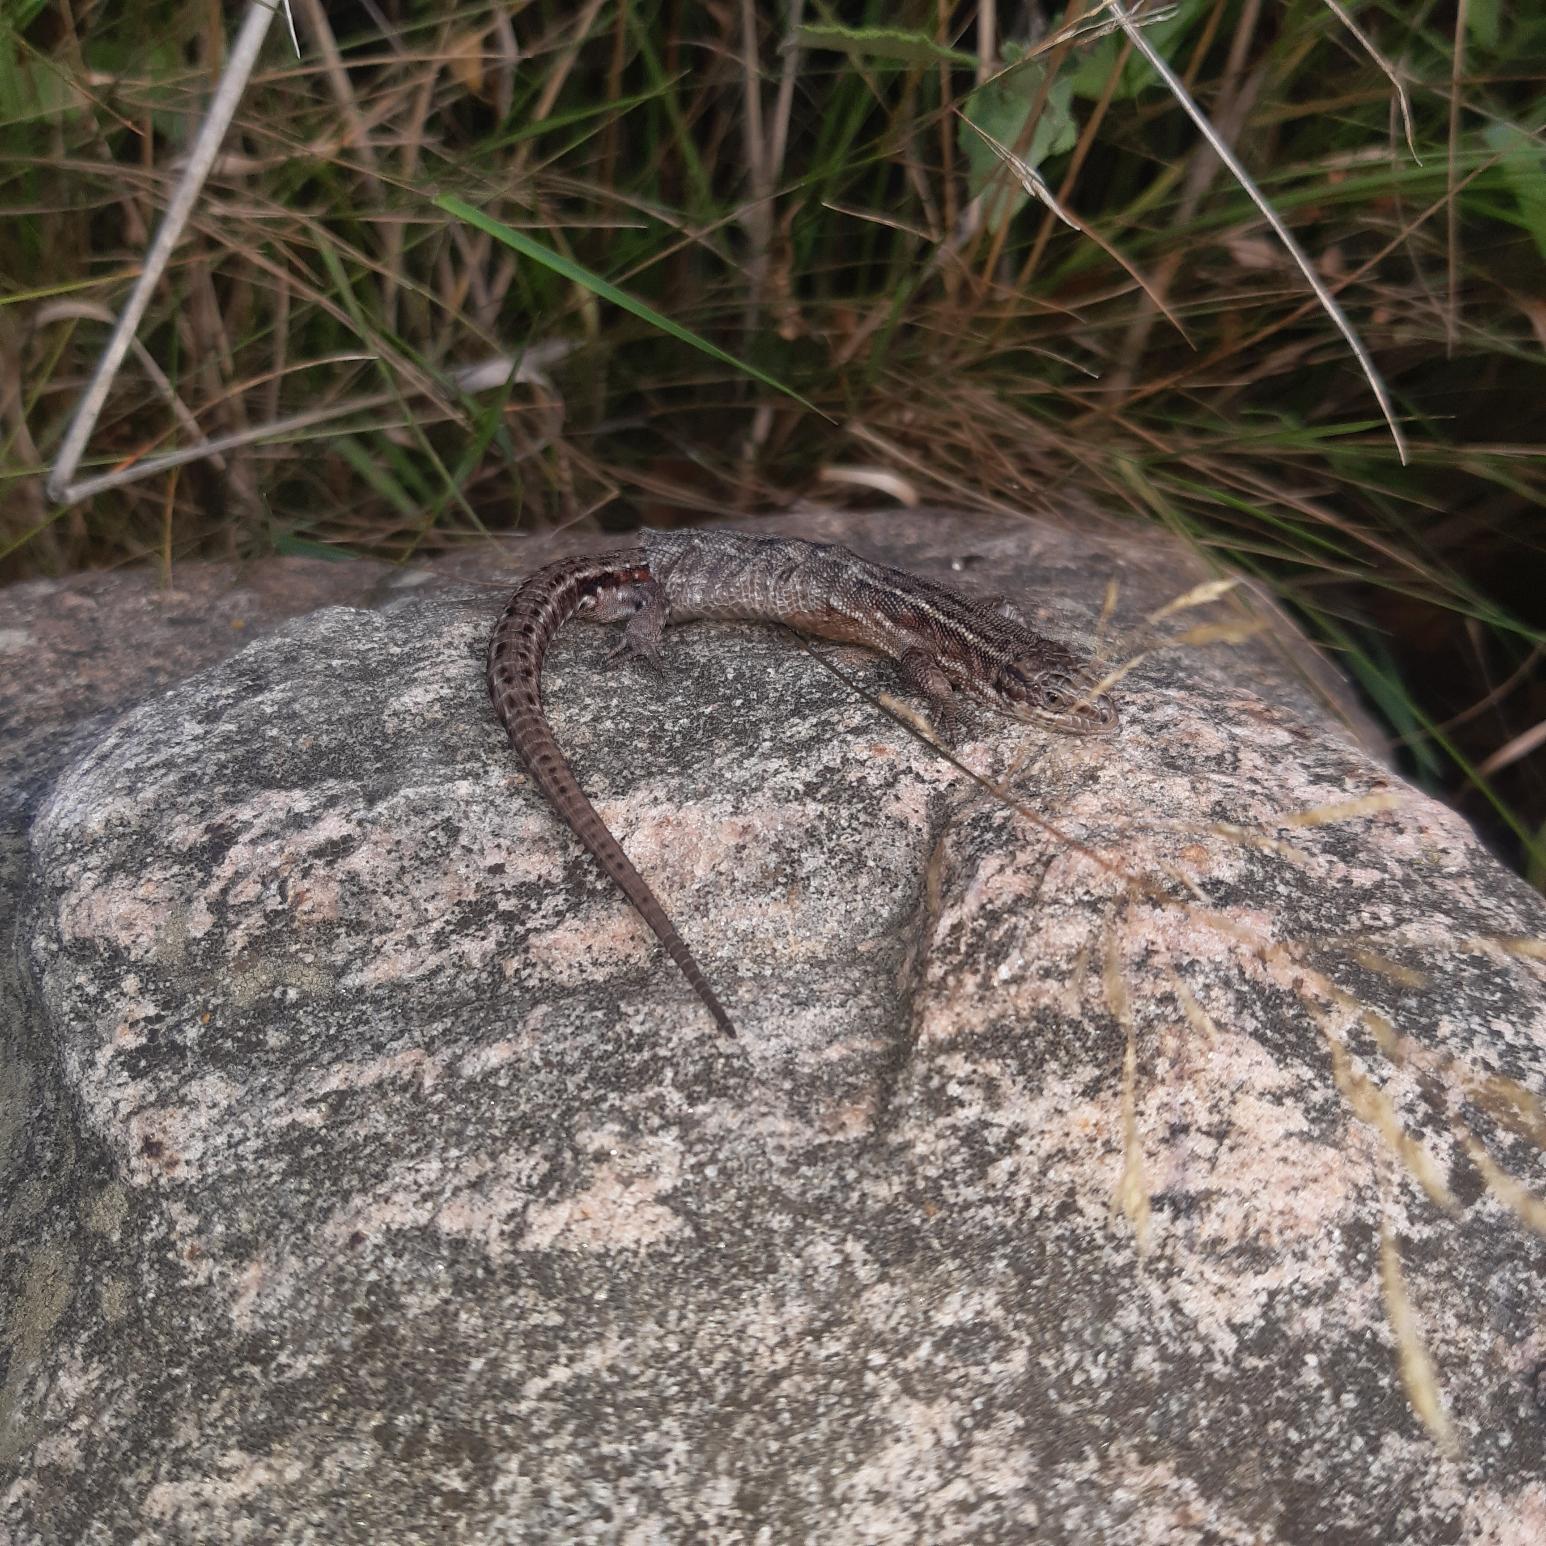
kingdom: Animalia
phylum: Chordata
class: Squamata
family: Lacertidae
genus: Zootoca
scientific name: Zootoca vivipara
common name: Skovfirben
